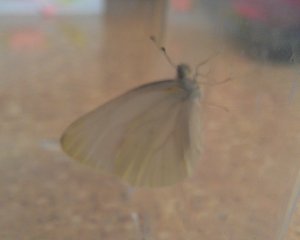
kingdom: Animalia
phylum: Arthropoda
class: Insecta
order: Lepidoptera
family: Pieridae
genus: Pieris
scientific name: Pieris oleracea
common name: Mustard White
